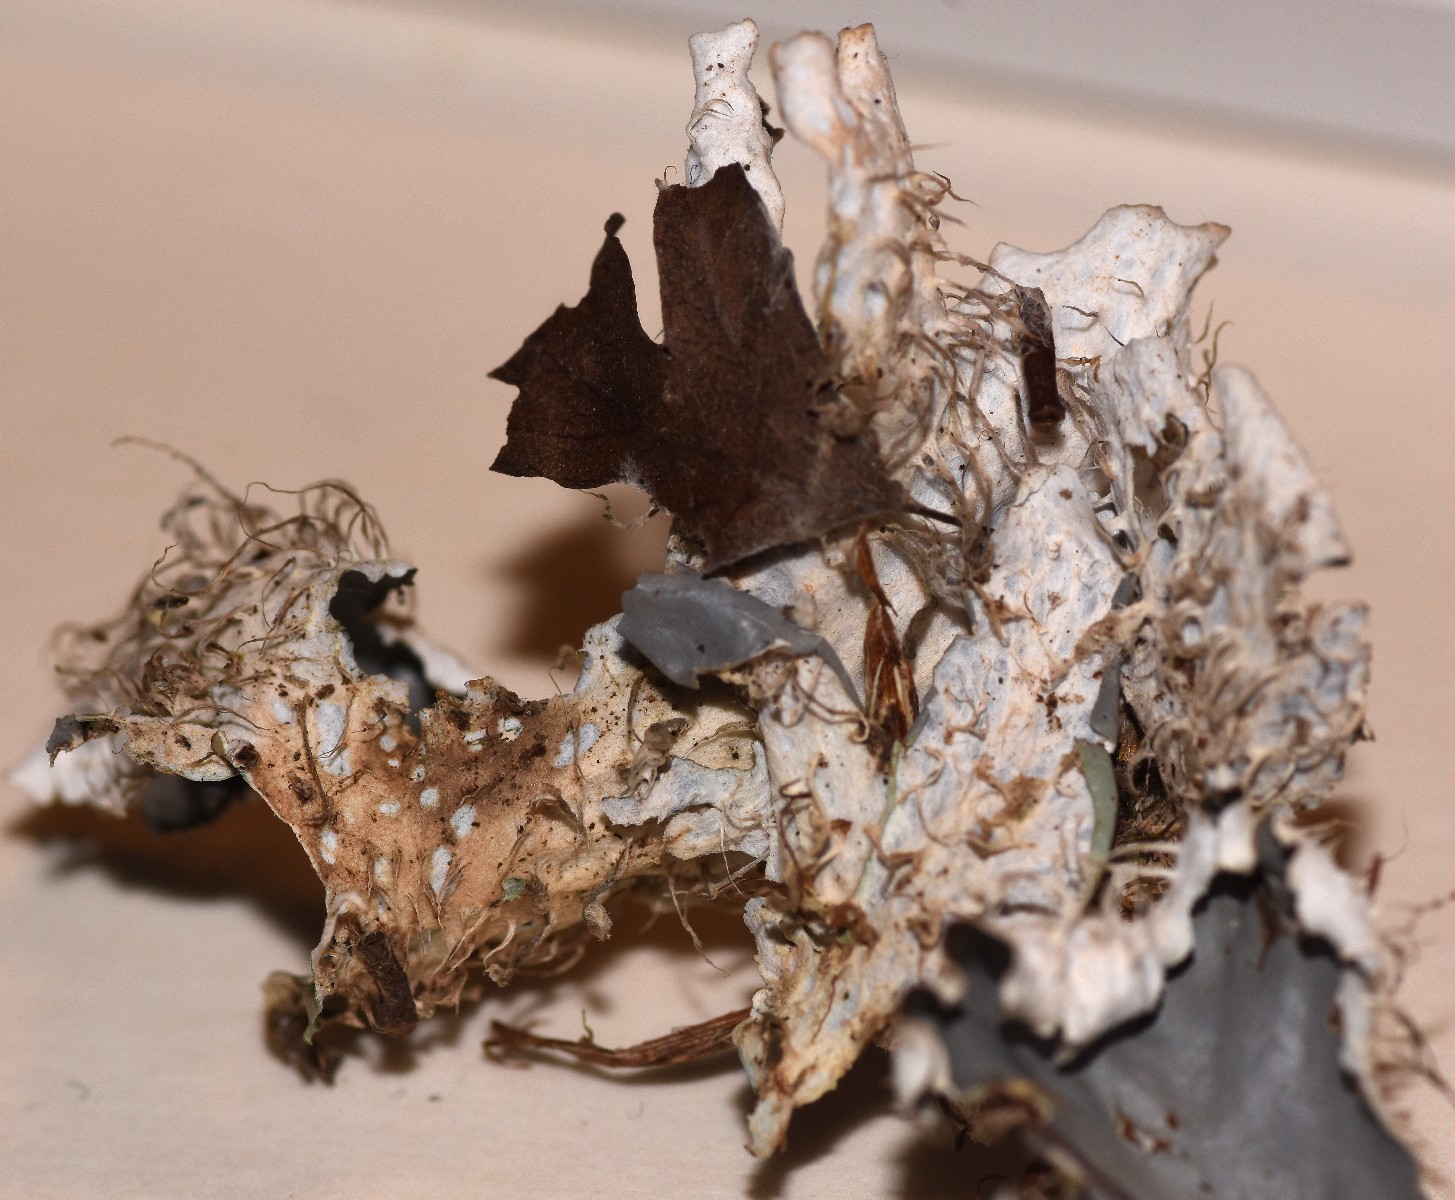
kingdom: Fungi
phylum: Ascomycota
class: Lecanoromycetes
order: Peltigerales
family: Peltigeraceae
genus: Peltigera
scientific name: Peltigera hymenina
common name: hinde-skjoldlav
